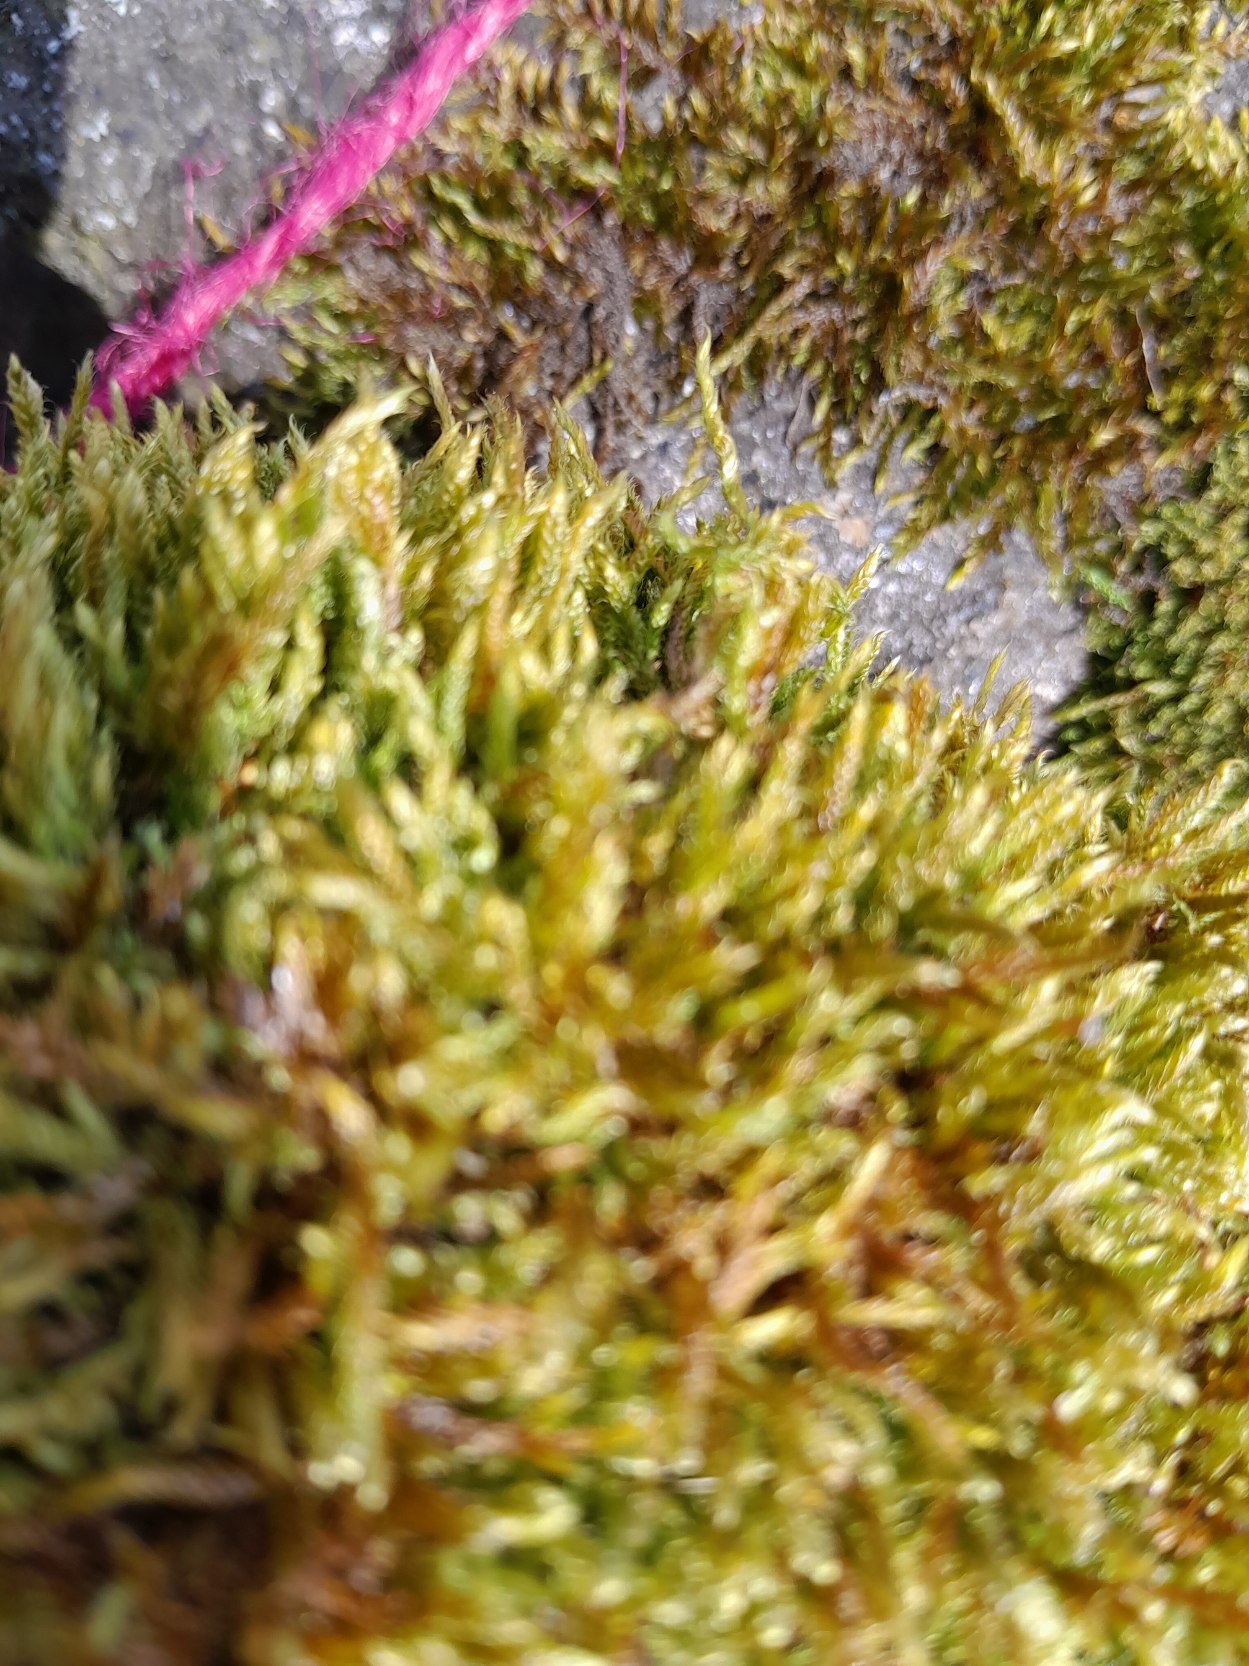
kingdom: Plantae
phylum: Bryophyta
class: Bryopsida
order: Hypnales
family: Hypnaceae
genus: Hypnum
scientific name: Hypnum cupressiforme
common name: Almindelig cypresmos
